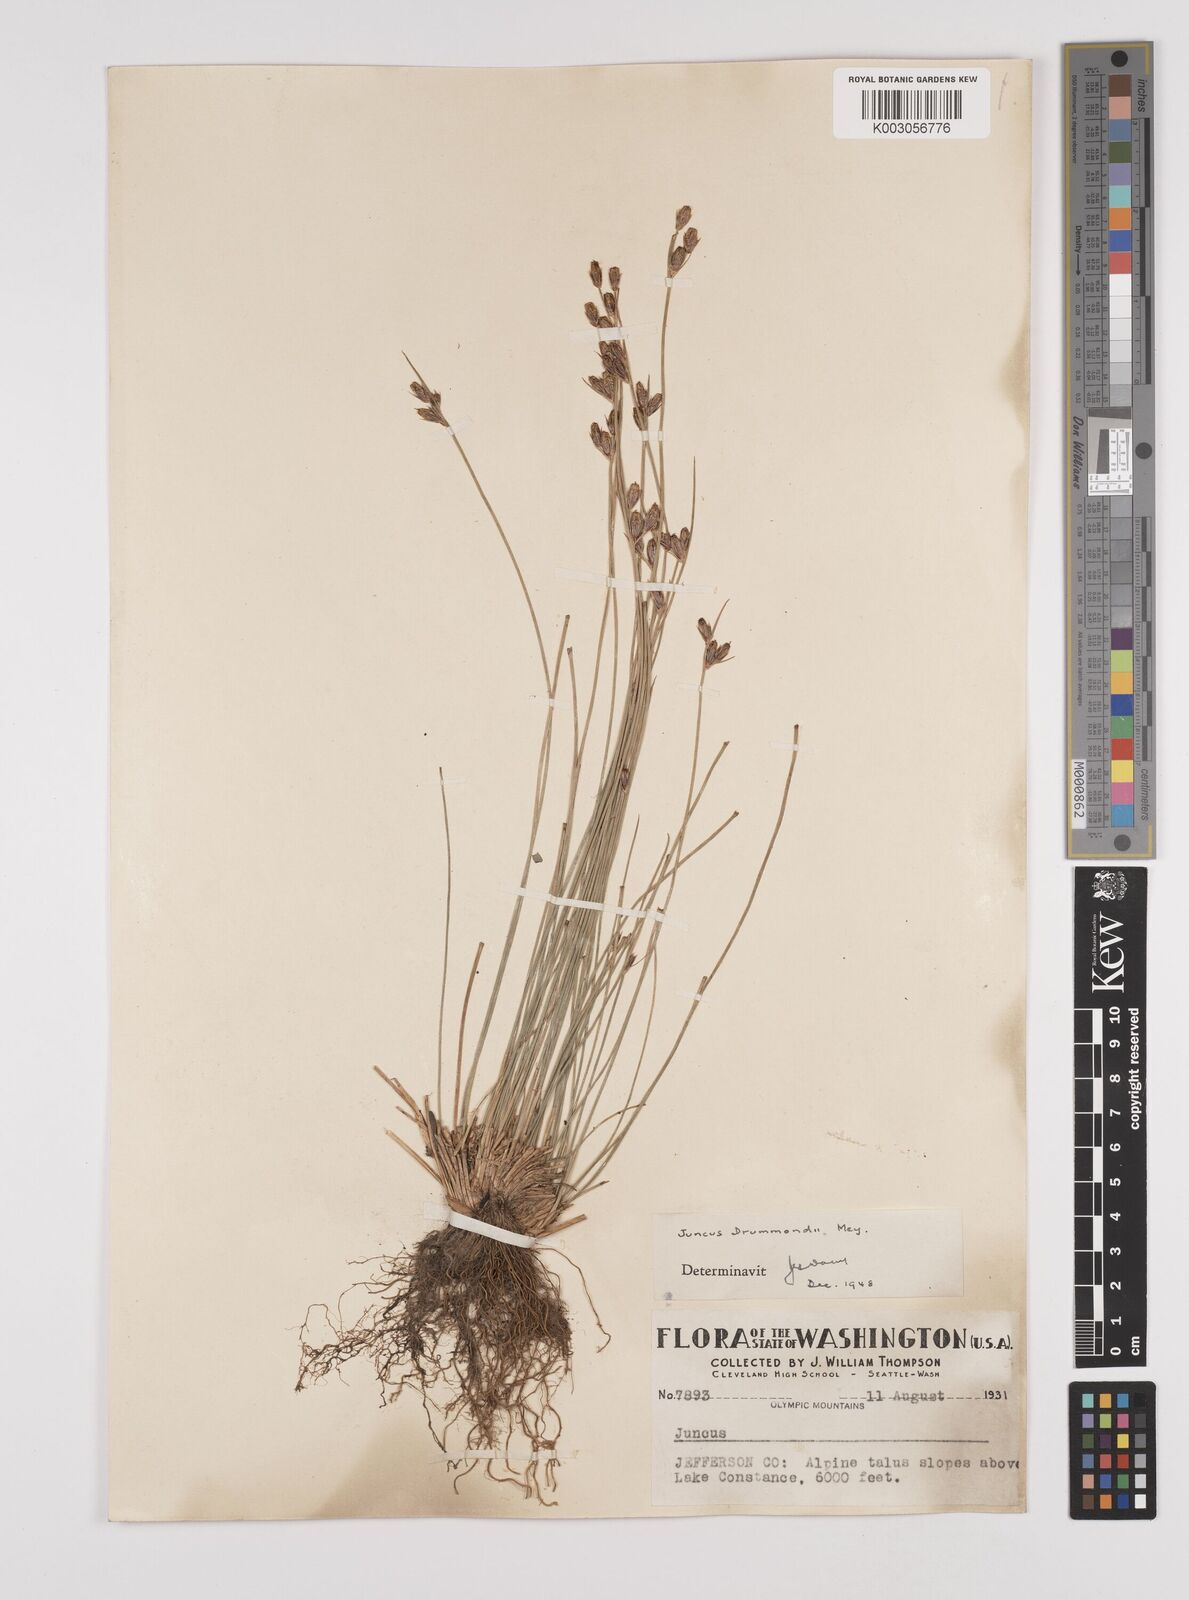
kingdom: Plantae
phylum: Tracheophyta
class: Liliopsida
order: Poales
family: Juncaceae
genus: Juncus
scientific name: Juncus drummondii
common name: Drummond's rush
